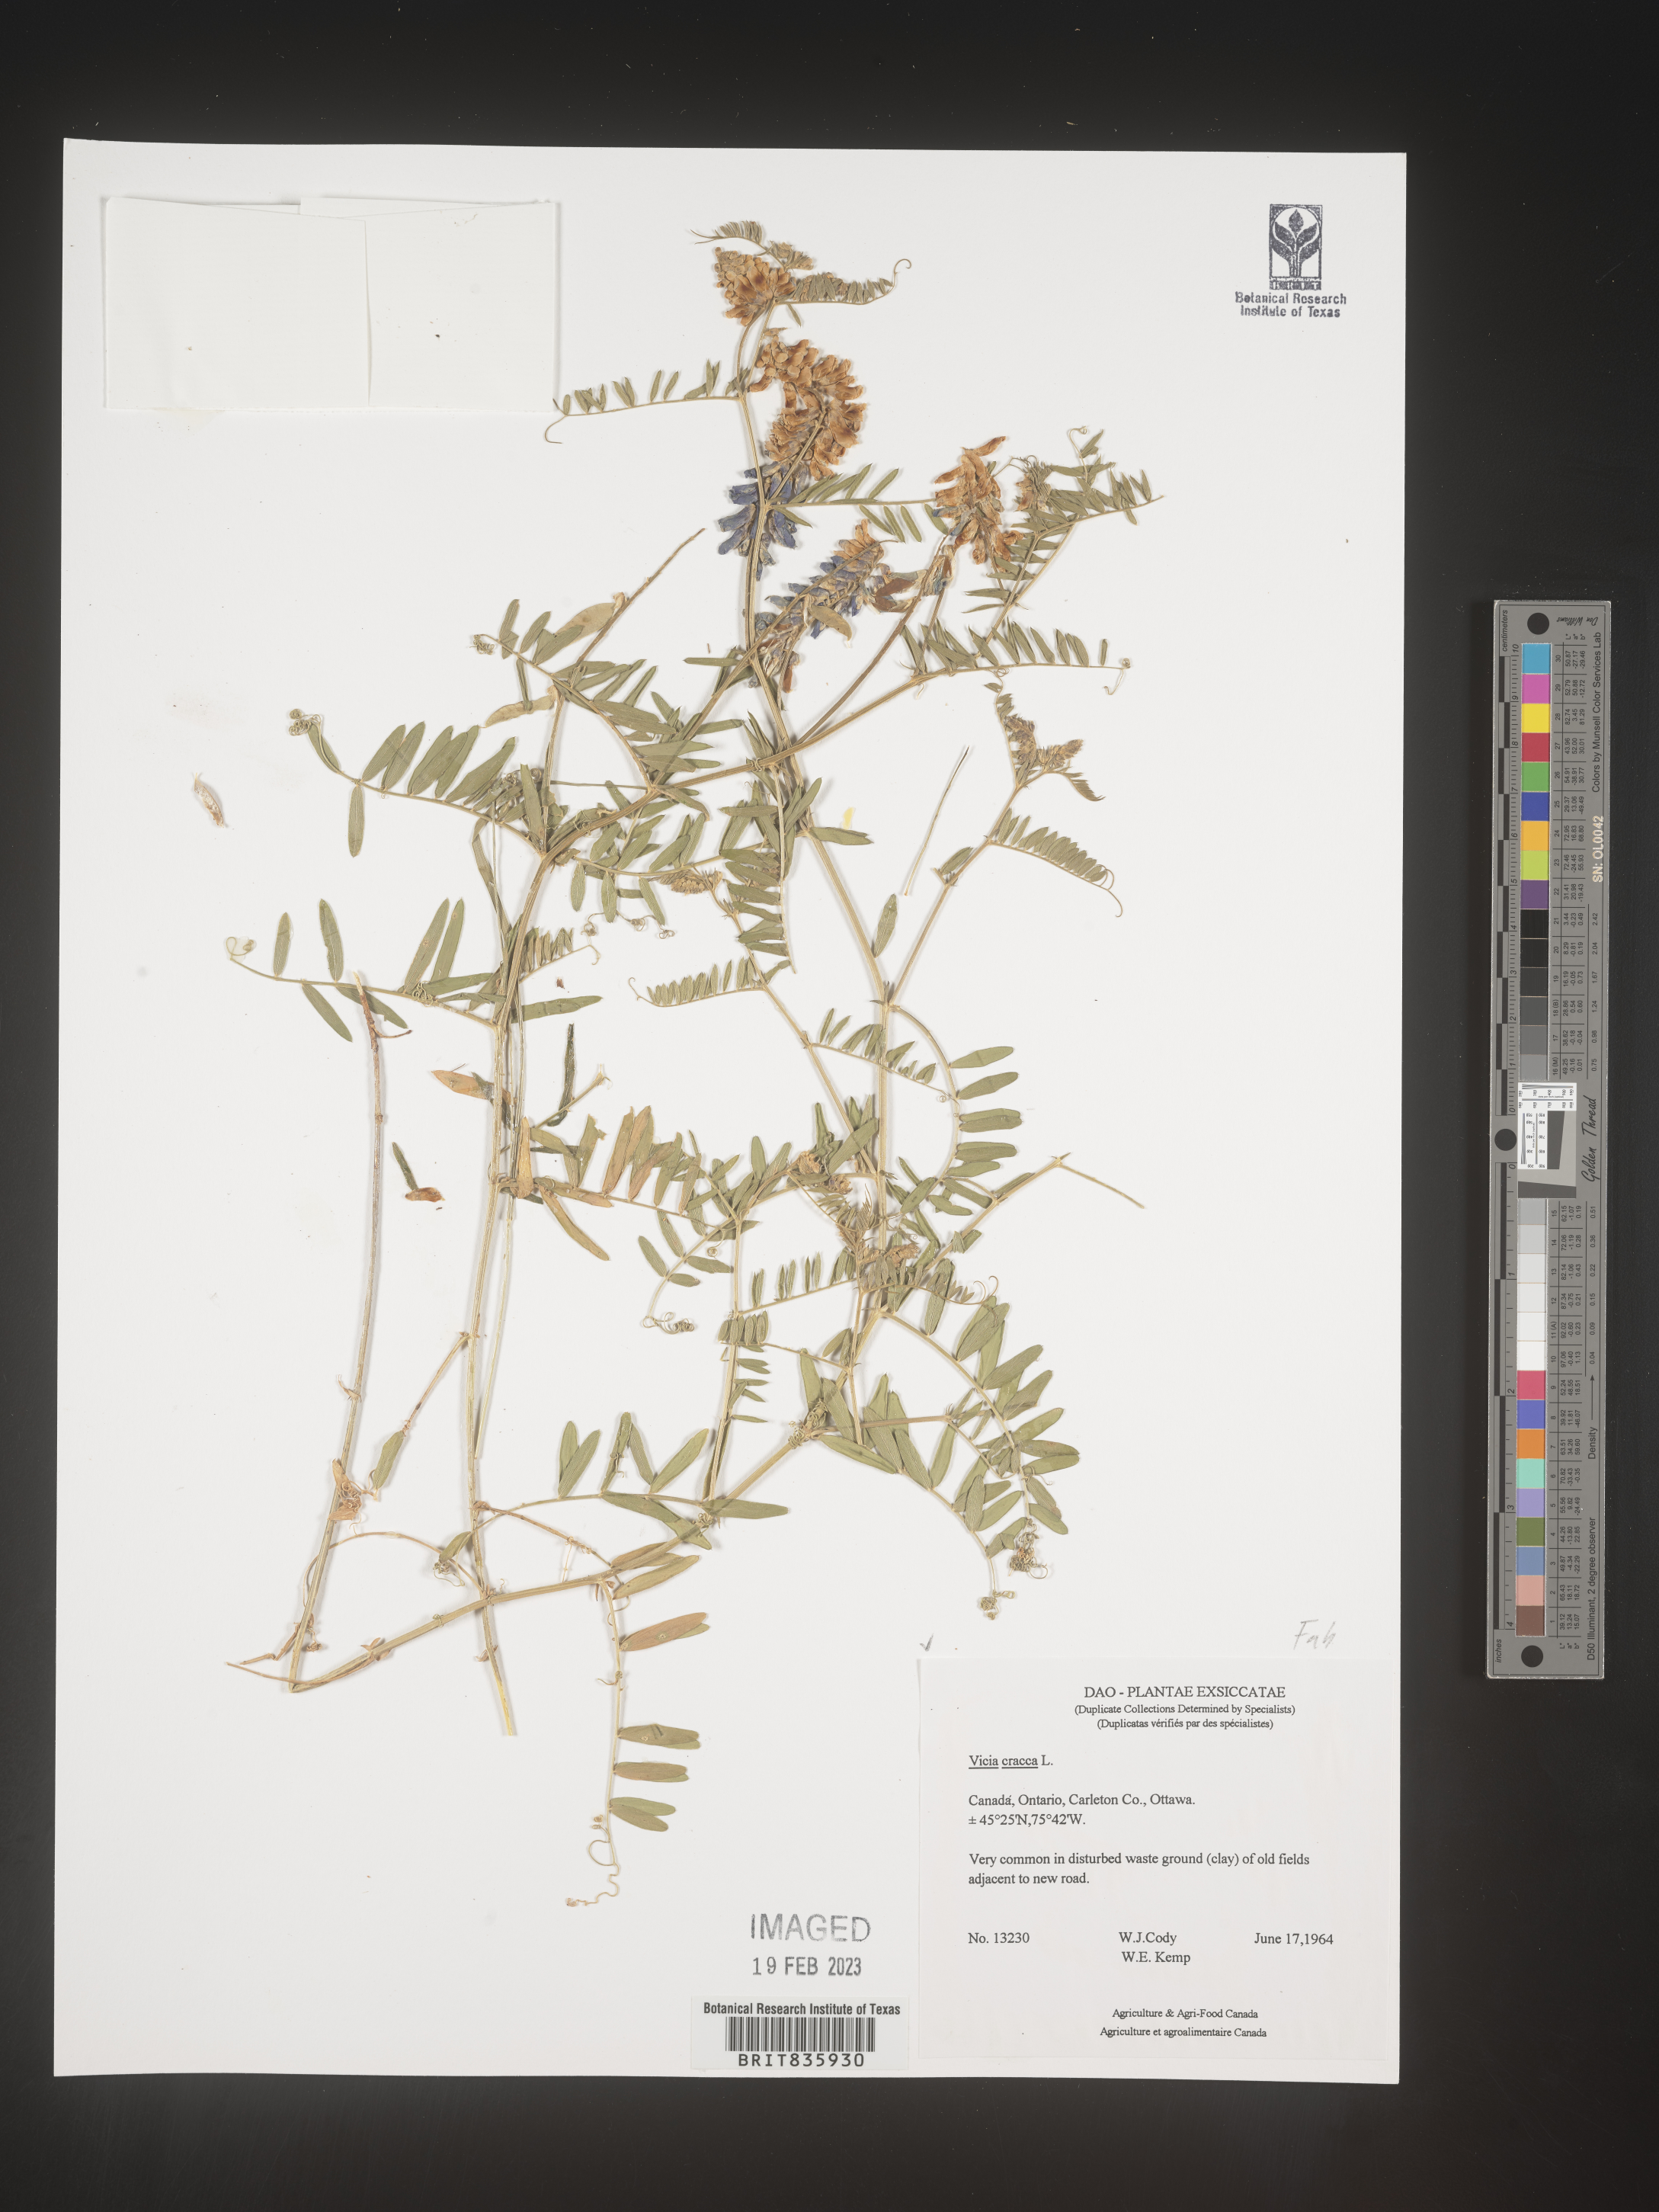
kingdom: Plantae
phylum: Tracheophyta
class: Magnoliopsida
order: Fabales
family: Fabaceae
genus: Vicia
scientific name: Vicia cracca
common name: Bird vetch
